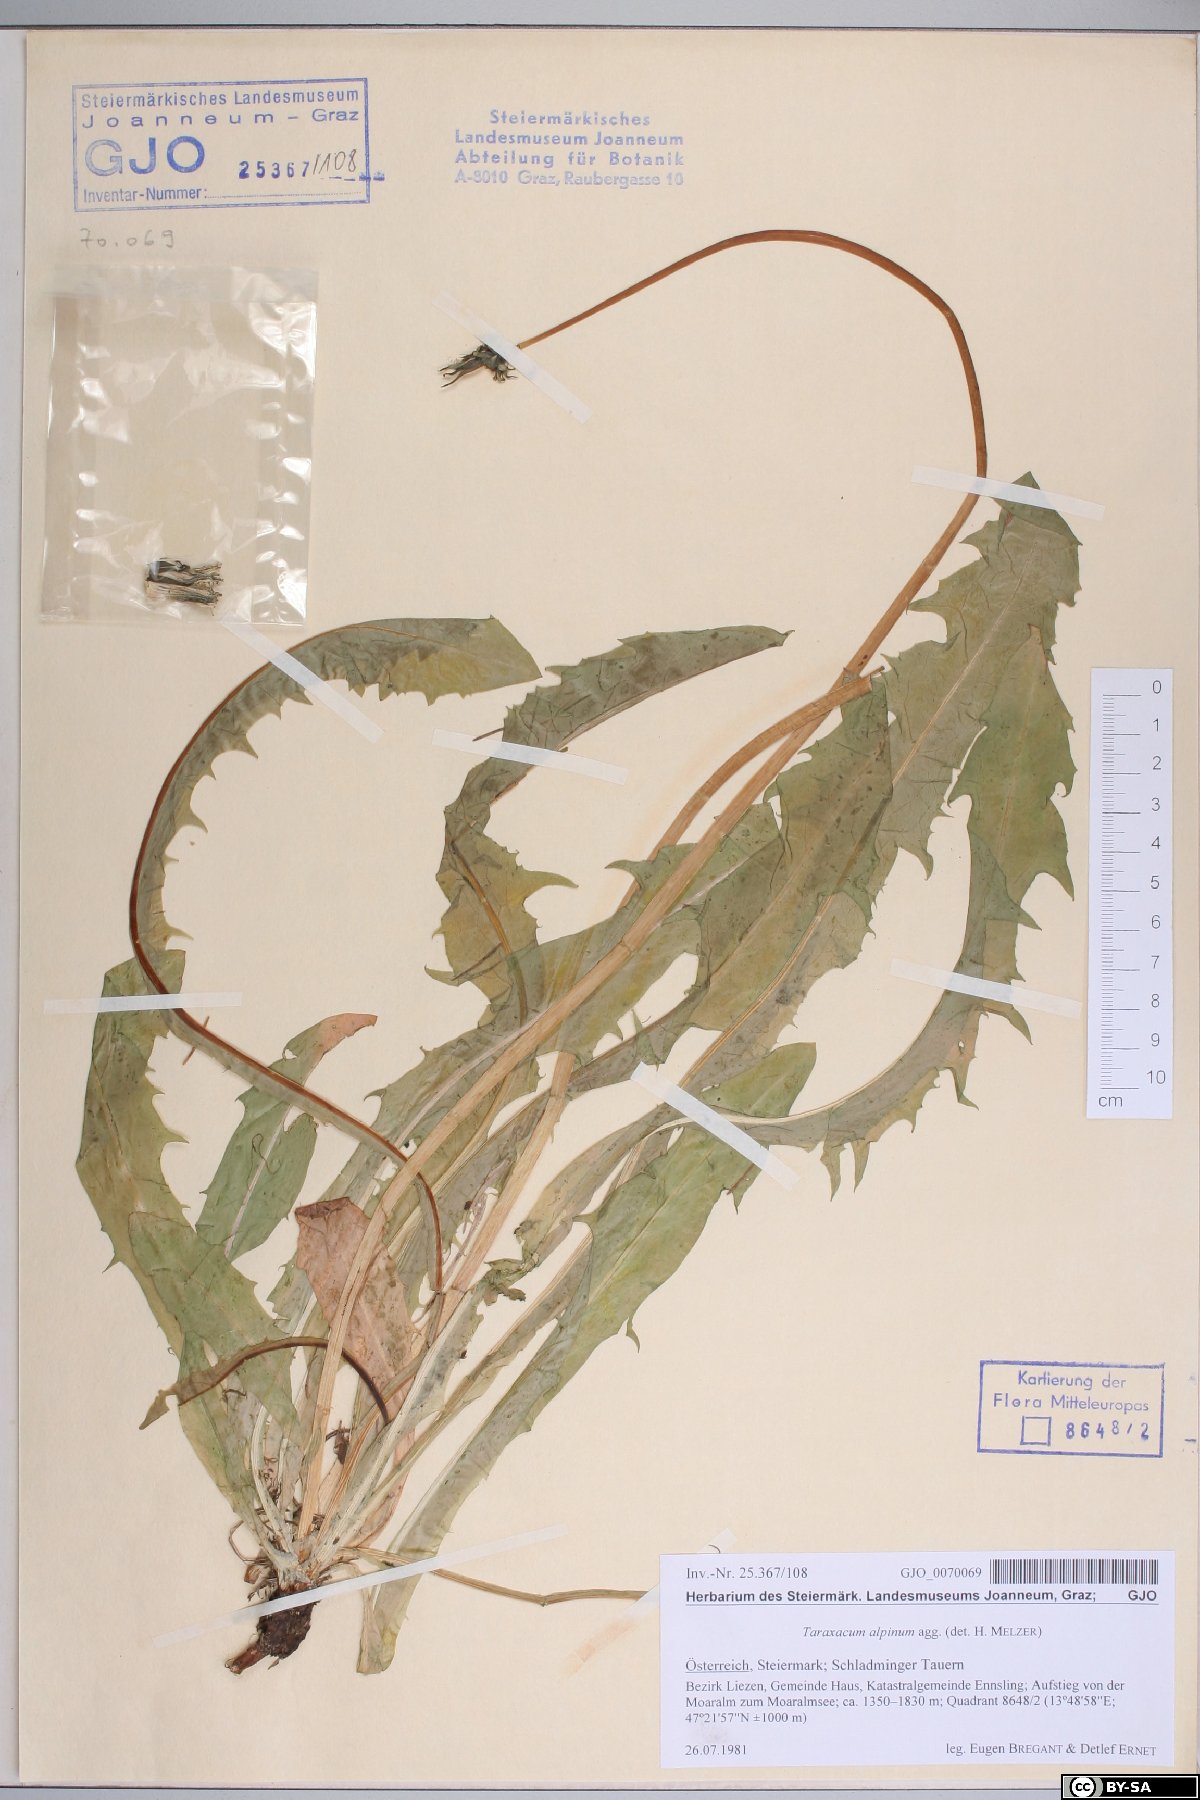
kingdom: Plantae
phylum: Tracheophyta
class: Magnoliopsida
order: Asterales
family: Asteraceae
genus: Taraxacum
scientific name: Taraxacum alpinum
